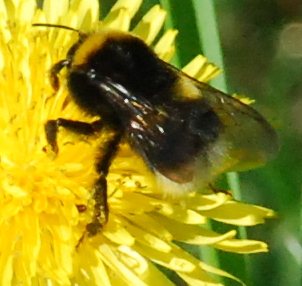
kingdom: Animalia
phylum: Arthropoda
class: Insecta
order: Hymenoptera
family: Apidae
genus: Bombus
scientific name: Bombus soroeensis
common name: Broken-belted humble-bee
